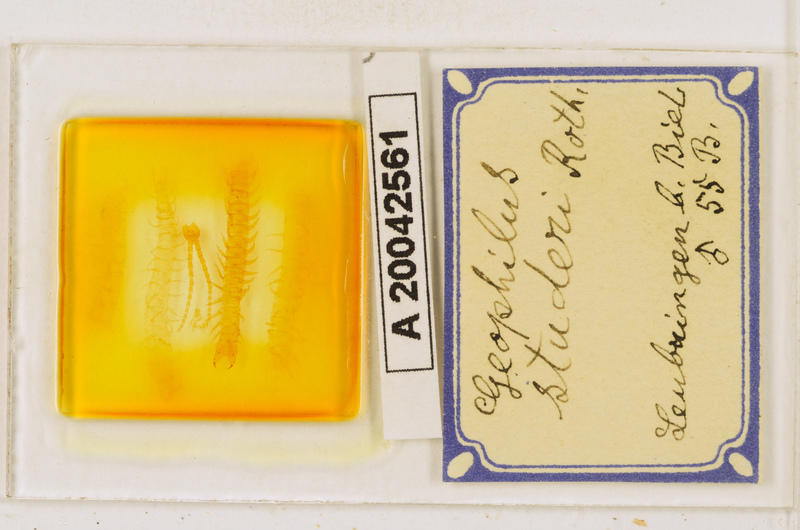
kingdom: Animalia
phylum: Arthropoda
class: Chilopoda
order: Geophilomorpha
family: Geophilidae
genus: Geophilus
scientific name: Geophilus studeri
